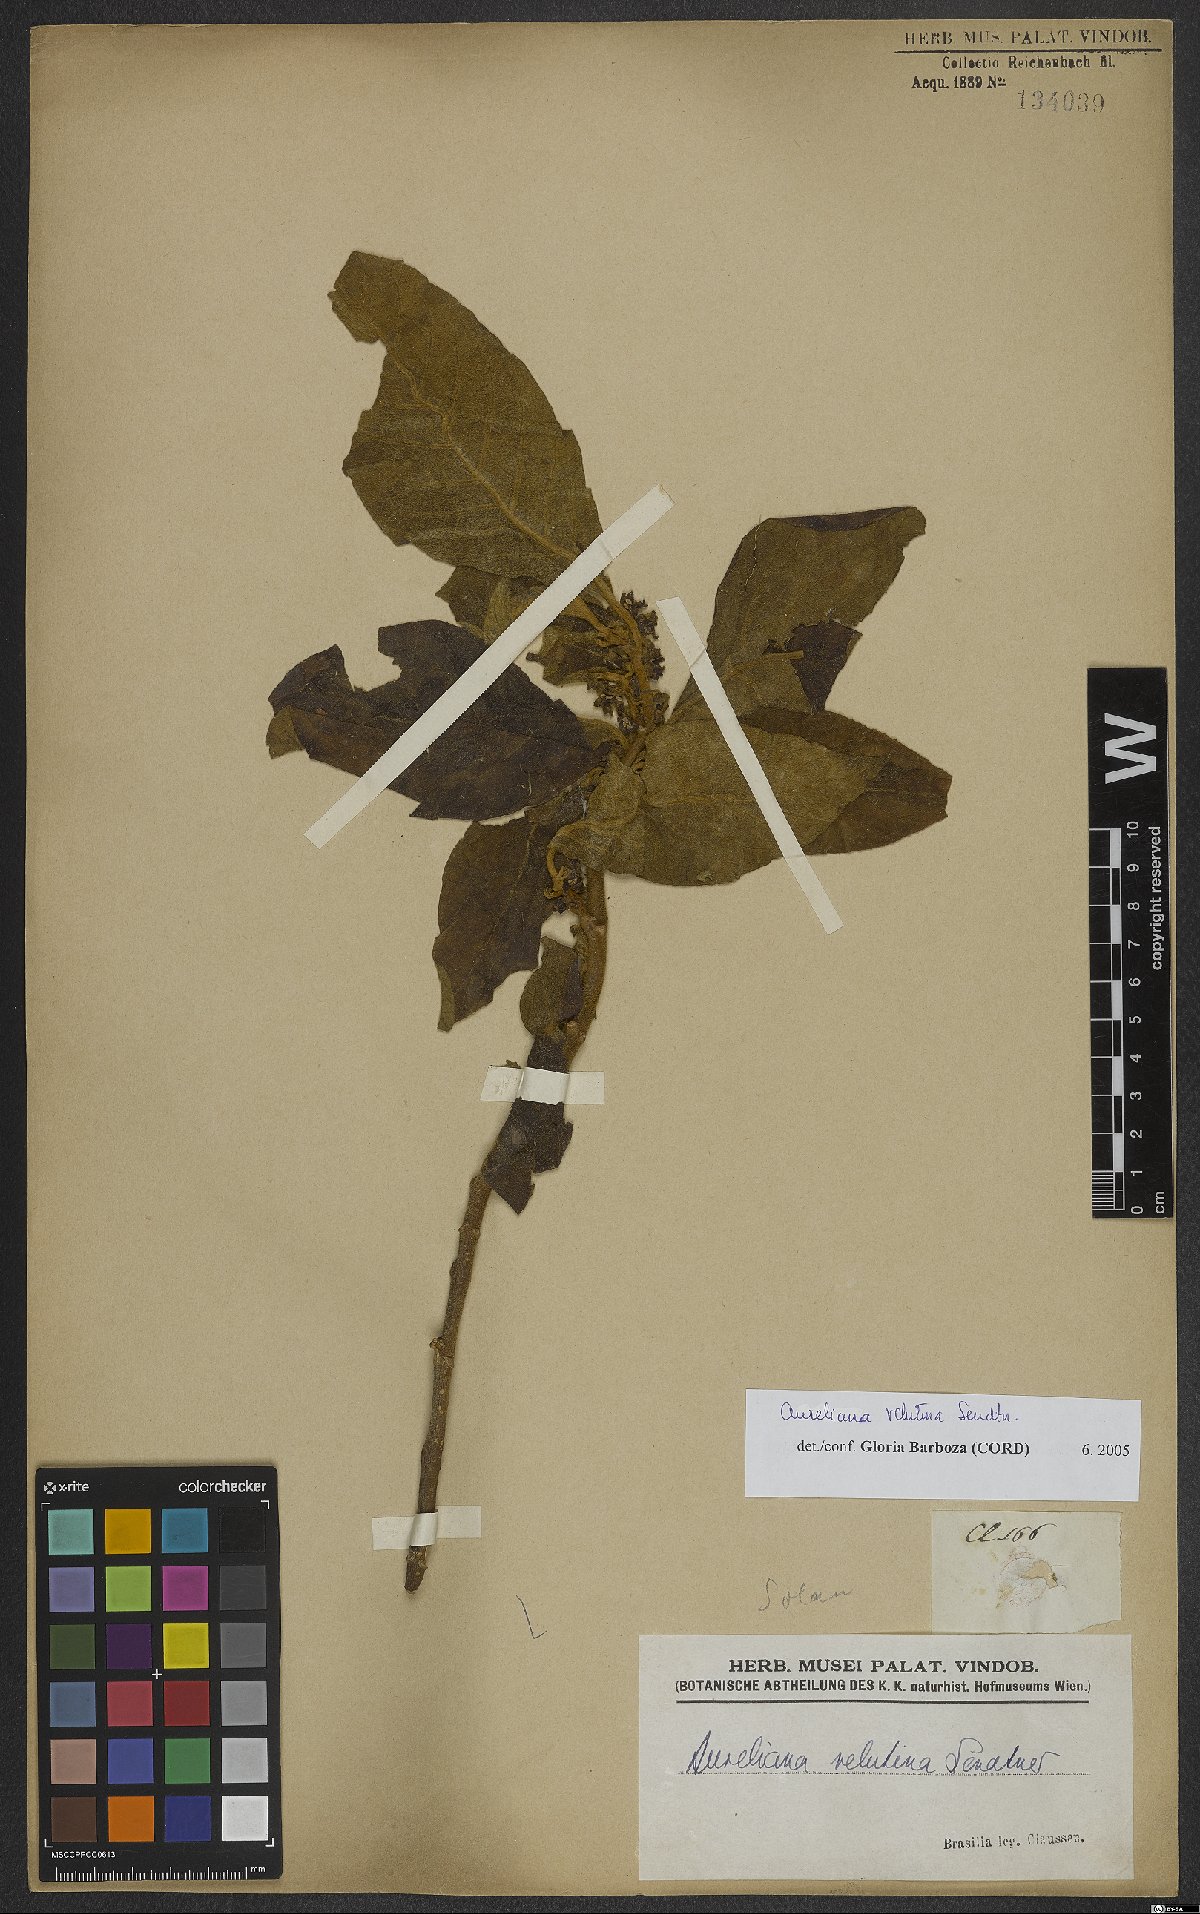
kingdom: Plantae
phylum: Tracheophyta
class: Magnoliopsida
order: Solanales
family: Solanaceae
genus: Athenaea
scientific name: Athenaea velutina
